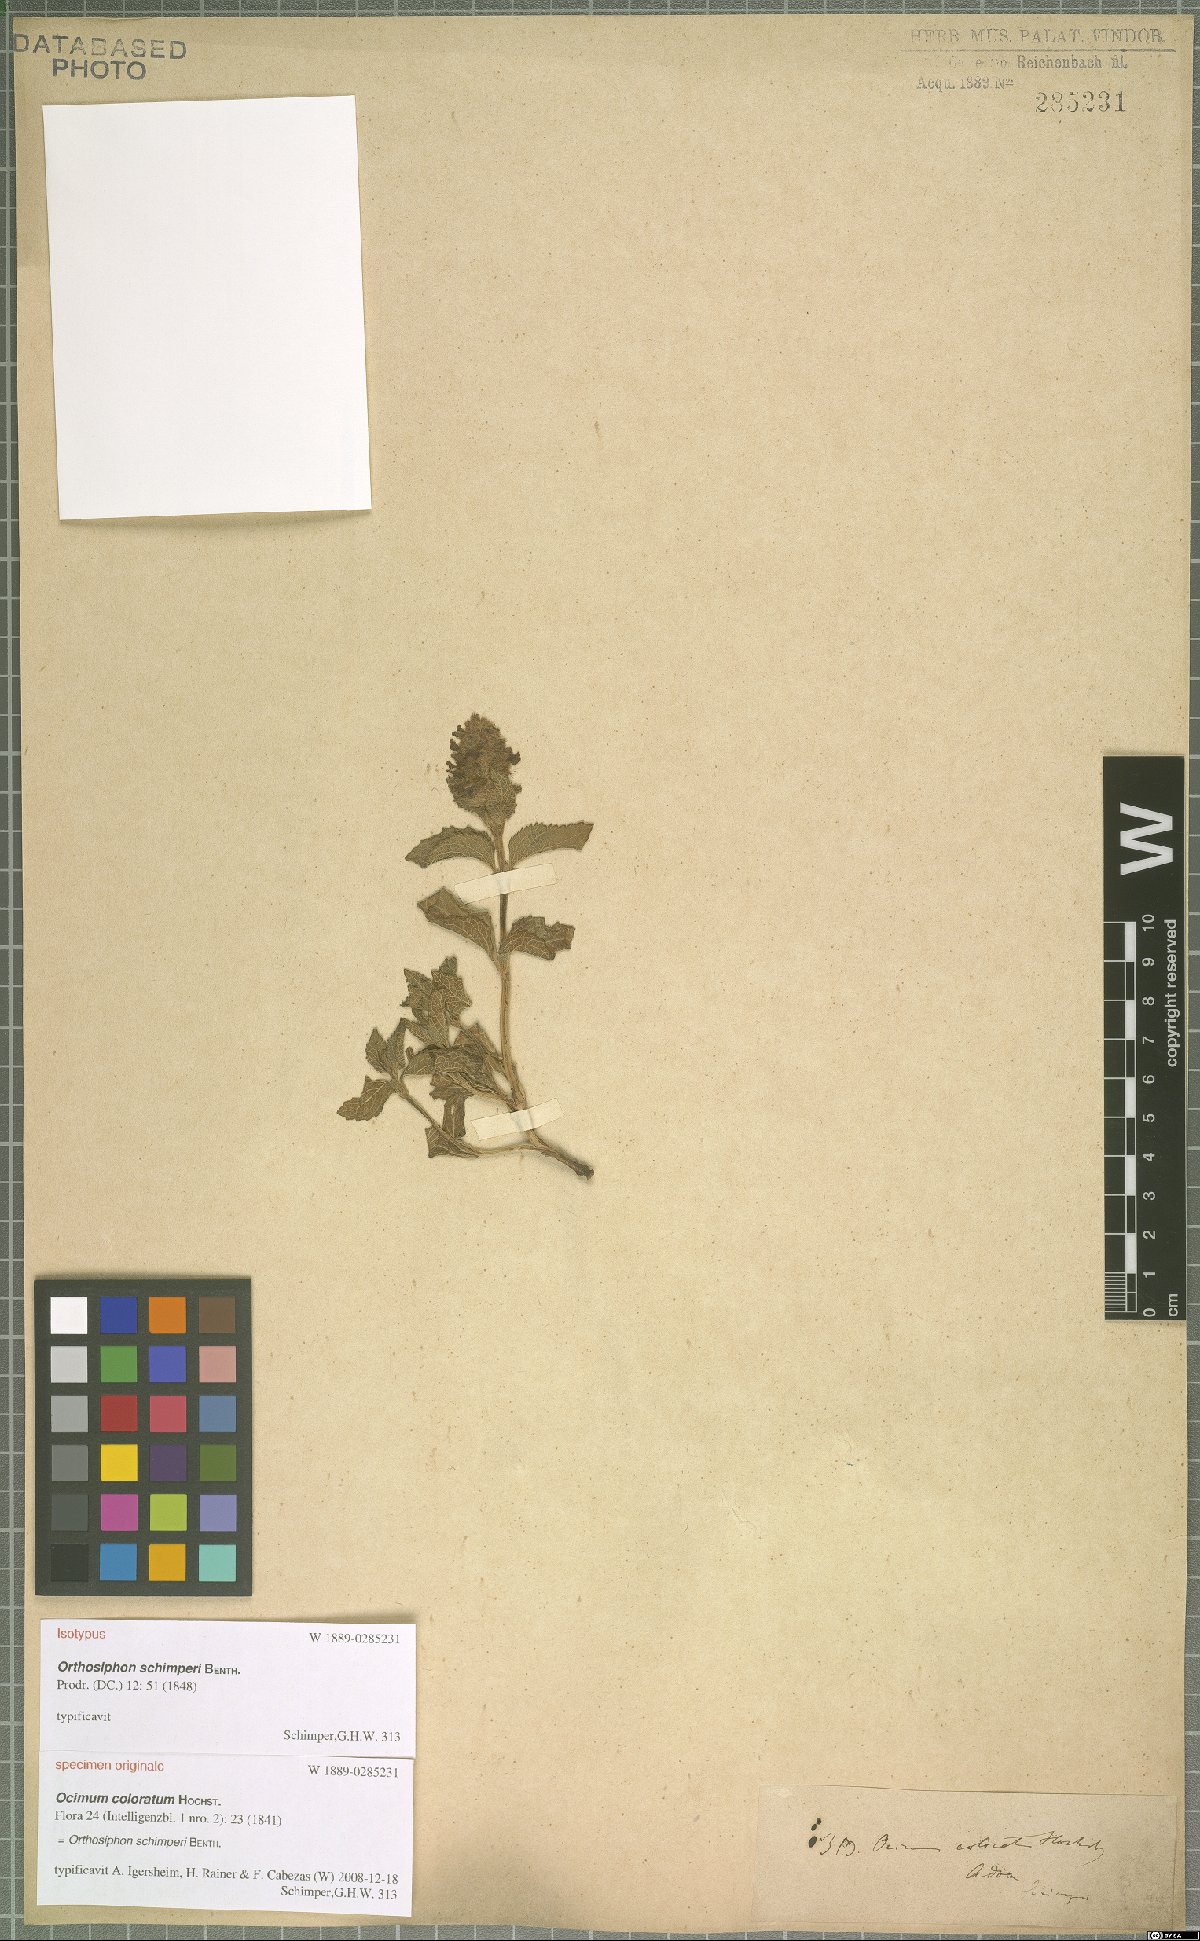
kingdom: Plantae
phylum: Tracheophyta
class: Magnoliopsida
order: Lamiales
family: Lamiaceae
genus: Orthosiphon
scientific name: Orthosiphon schimperi
